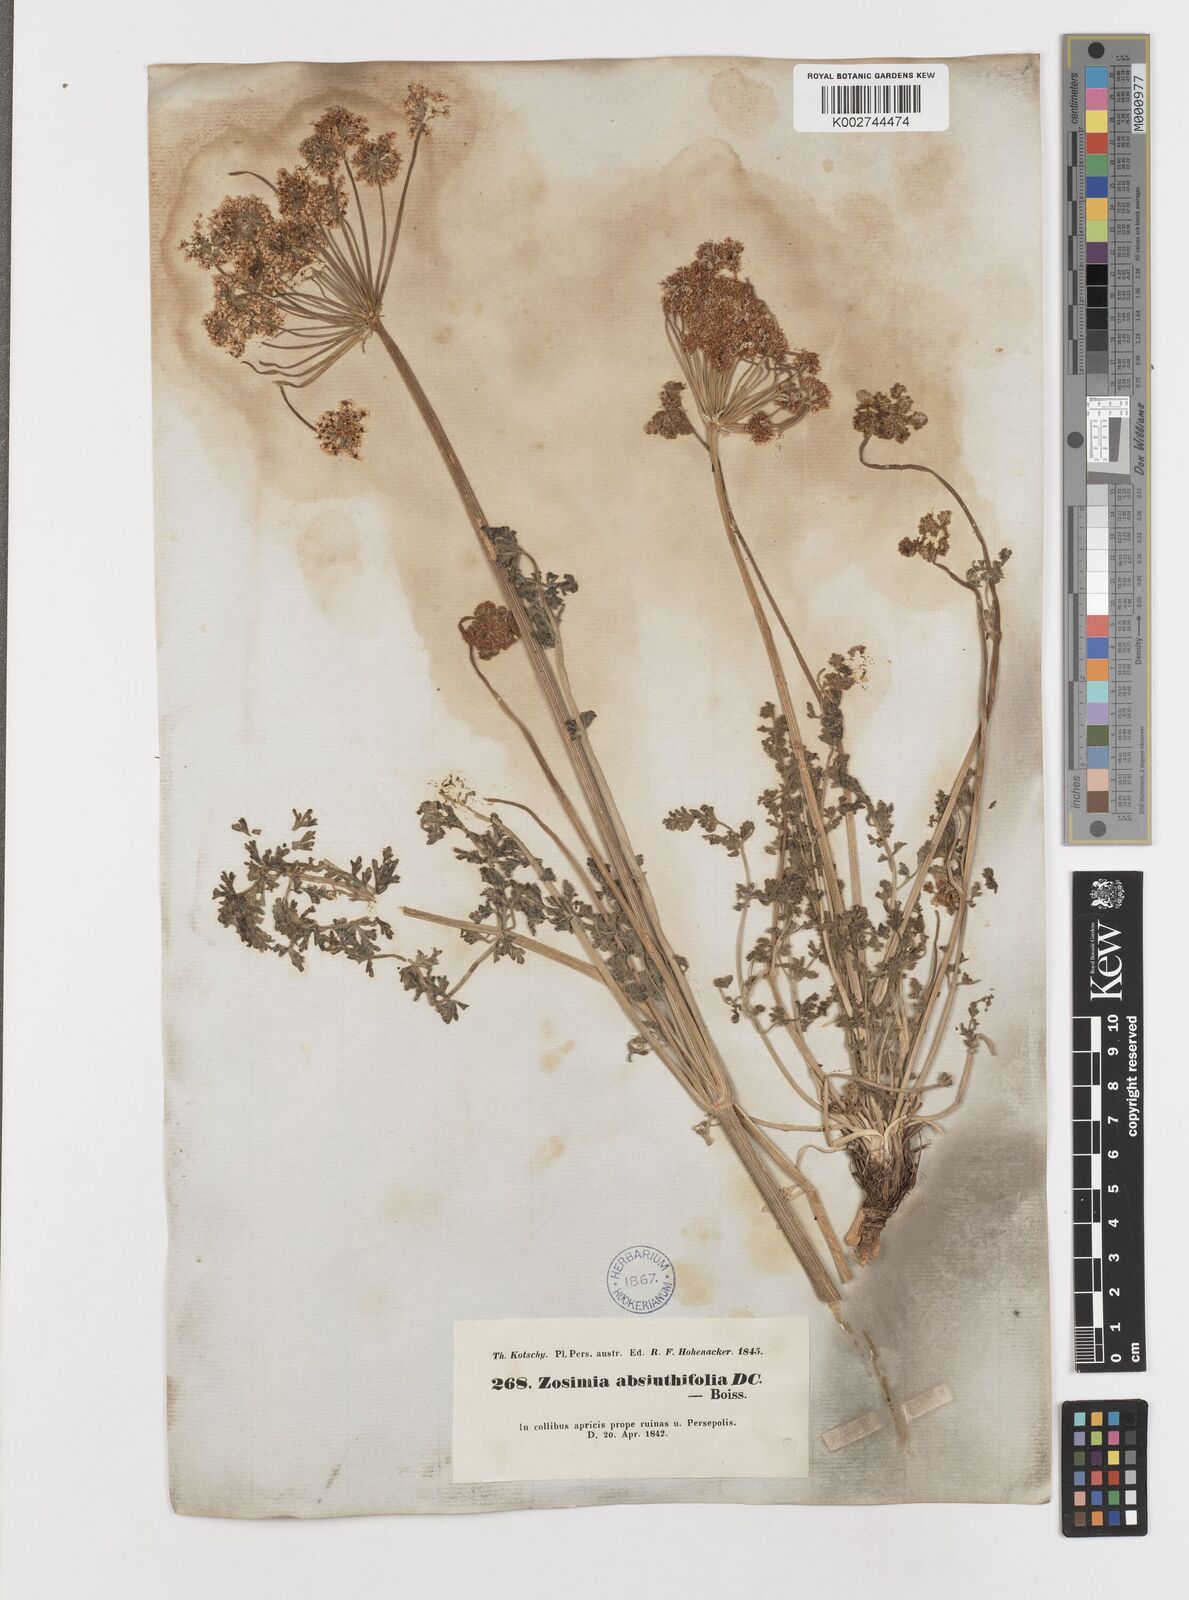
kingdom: Plantae
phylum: Tracheophyta
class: Magnoliopsida
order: Apiales
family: Apiaceae
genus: Zosima
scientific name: Zosima absinthiifolia
